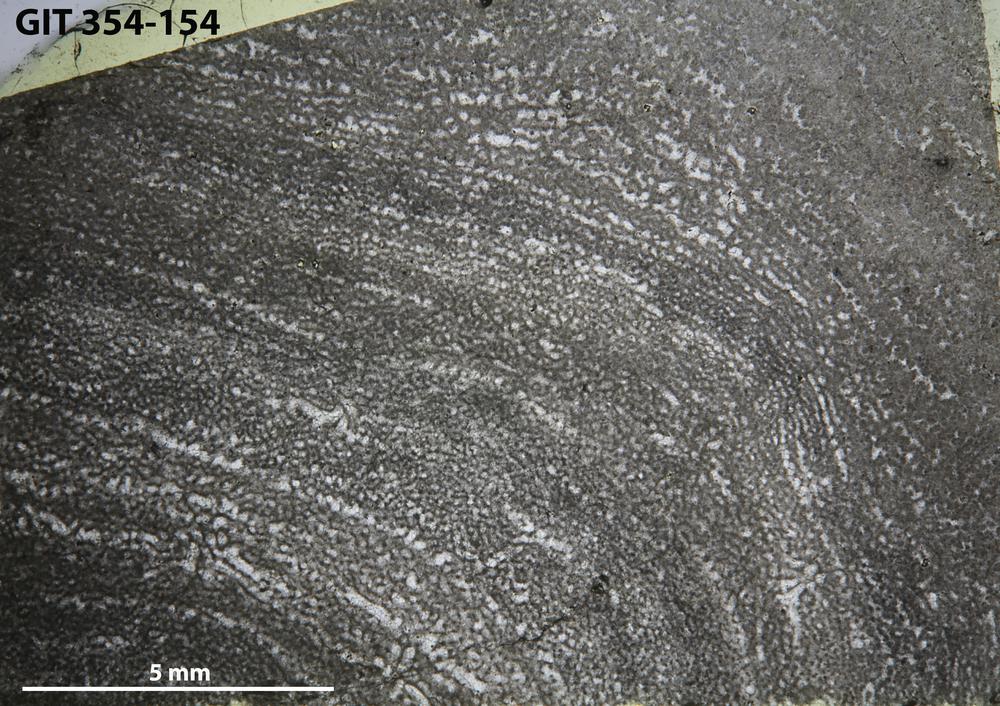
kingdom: Animalia
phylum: Porifera
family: Clathrodictyidae
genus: Clathrodictyon
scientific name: Clathrodictyon boreale
